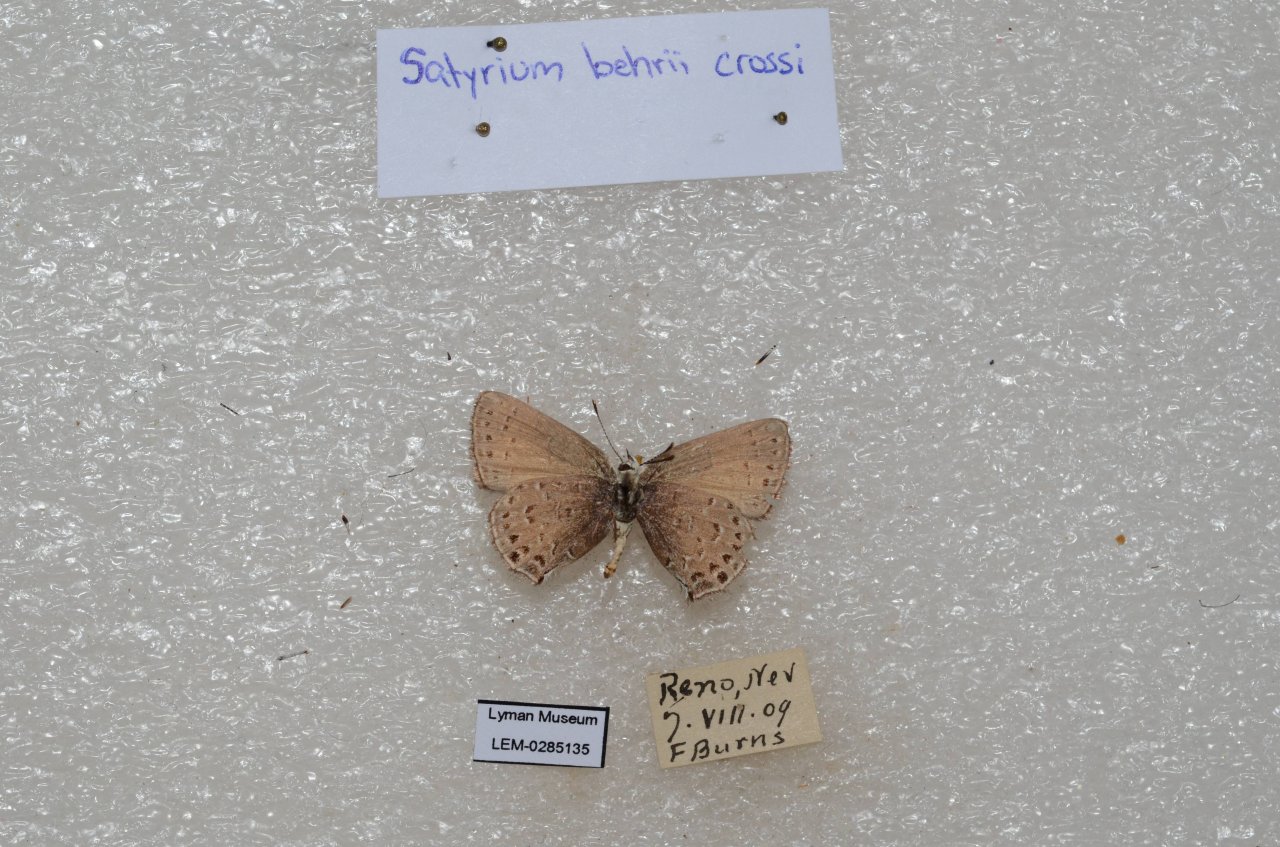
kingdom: Animalia
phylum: Arthropoda
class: Insecta
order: Lepidoptera
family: Lycaenidae
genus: Satyrium
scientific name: Satyrium behrii
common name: Behr's Hairstreak
